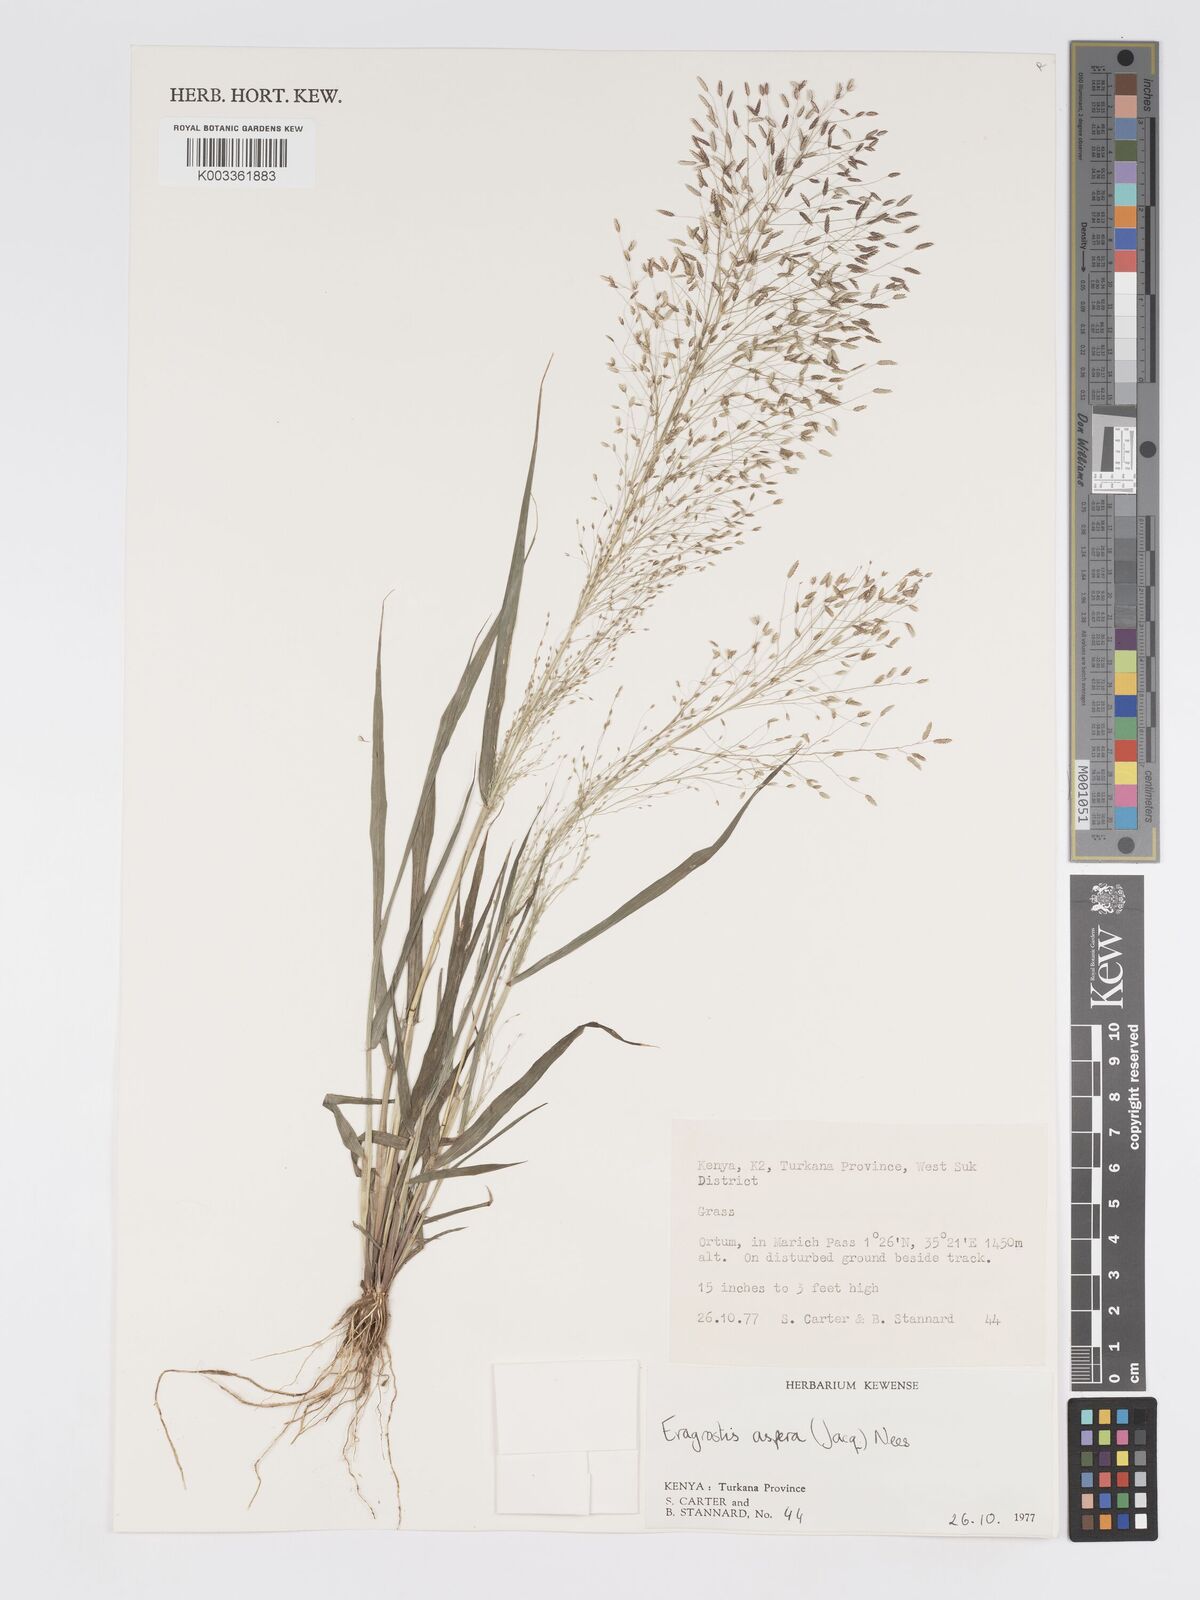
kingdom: Plantae
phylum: Tracheophyta
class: Liliopsida
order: Poales
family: Poaceae
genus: Eragrostis
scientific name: Eragrostis aspera
